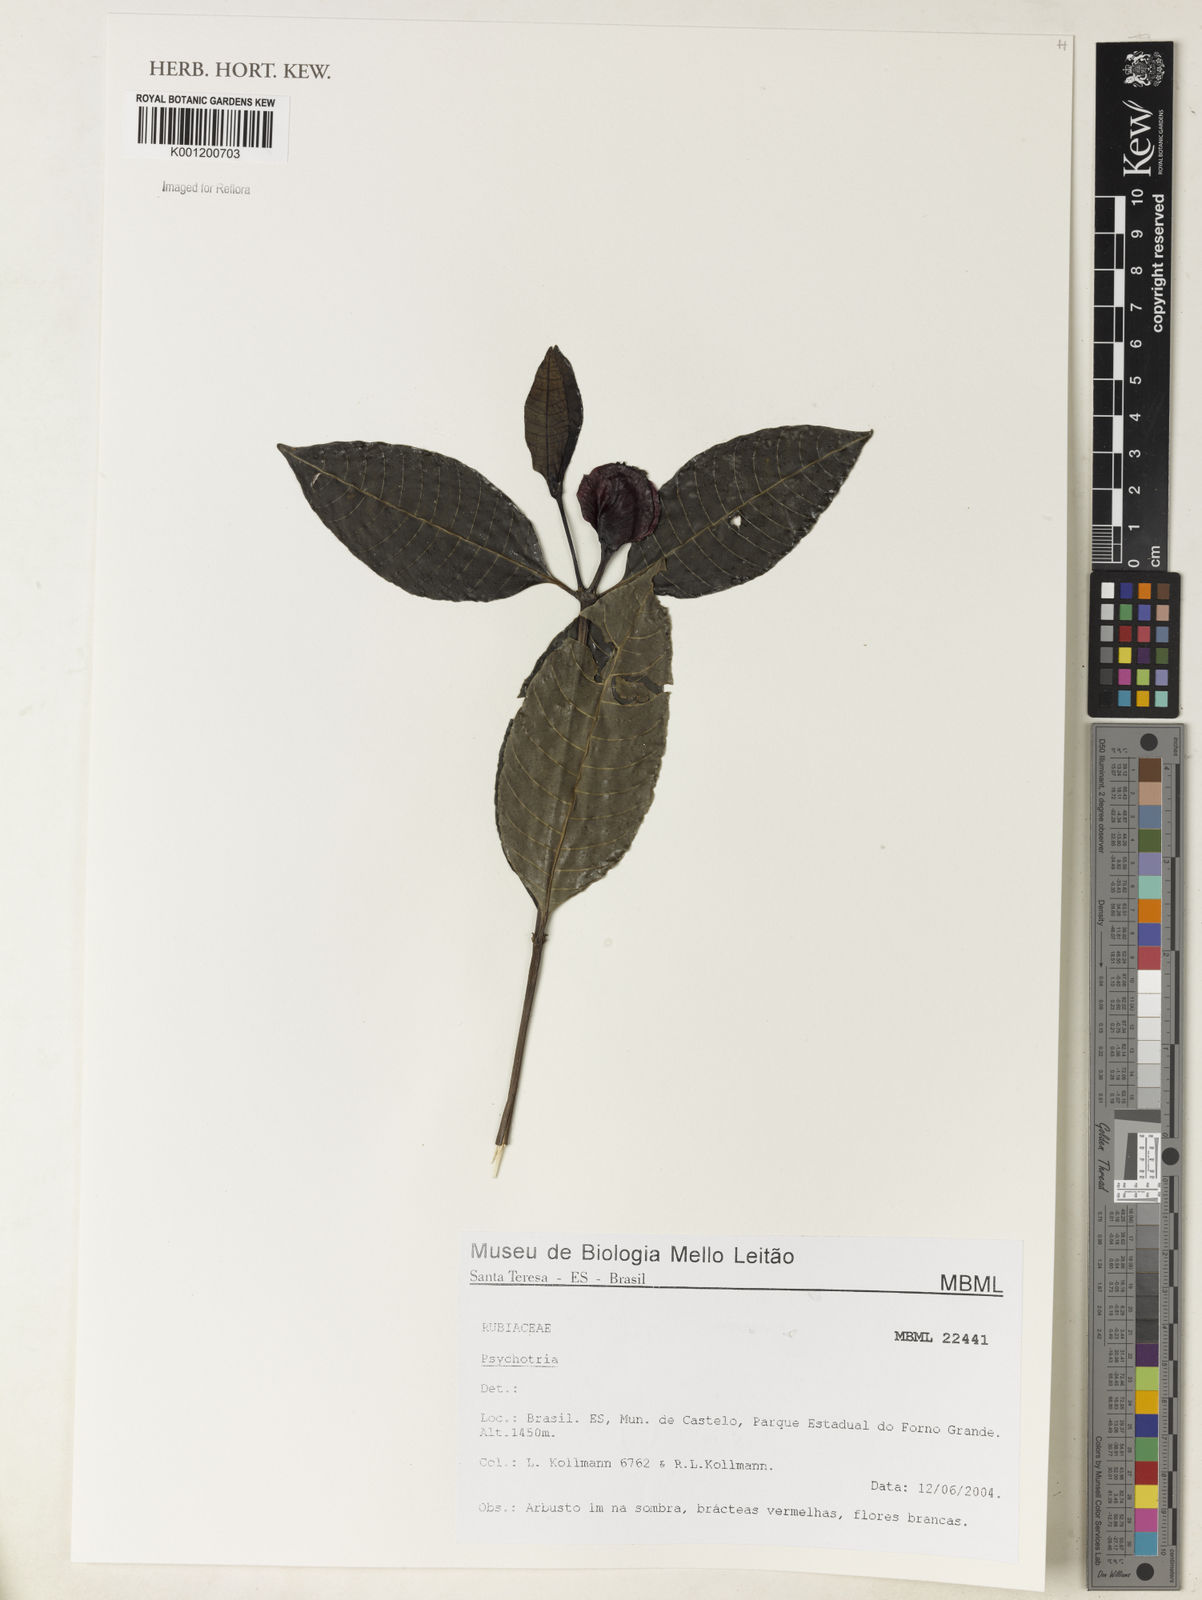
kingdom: Plantae
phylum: Tracheophyta
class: Magnoliopsida
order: Gentianales
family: Rubiaceae
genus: Psychotria
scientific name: Psychotria
